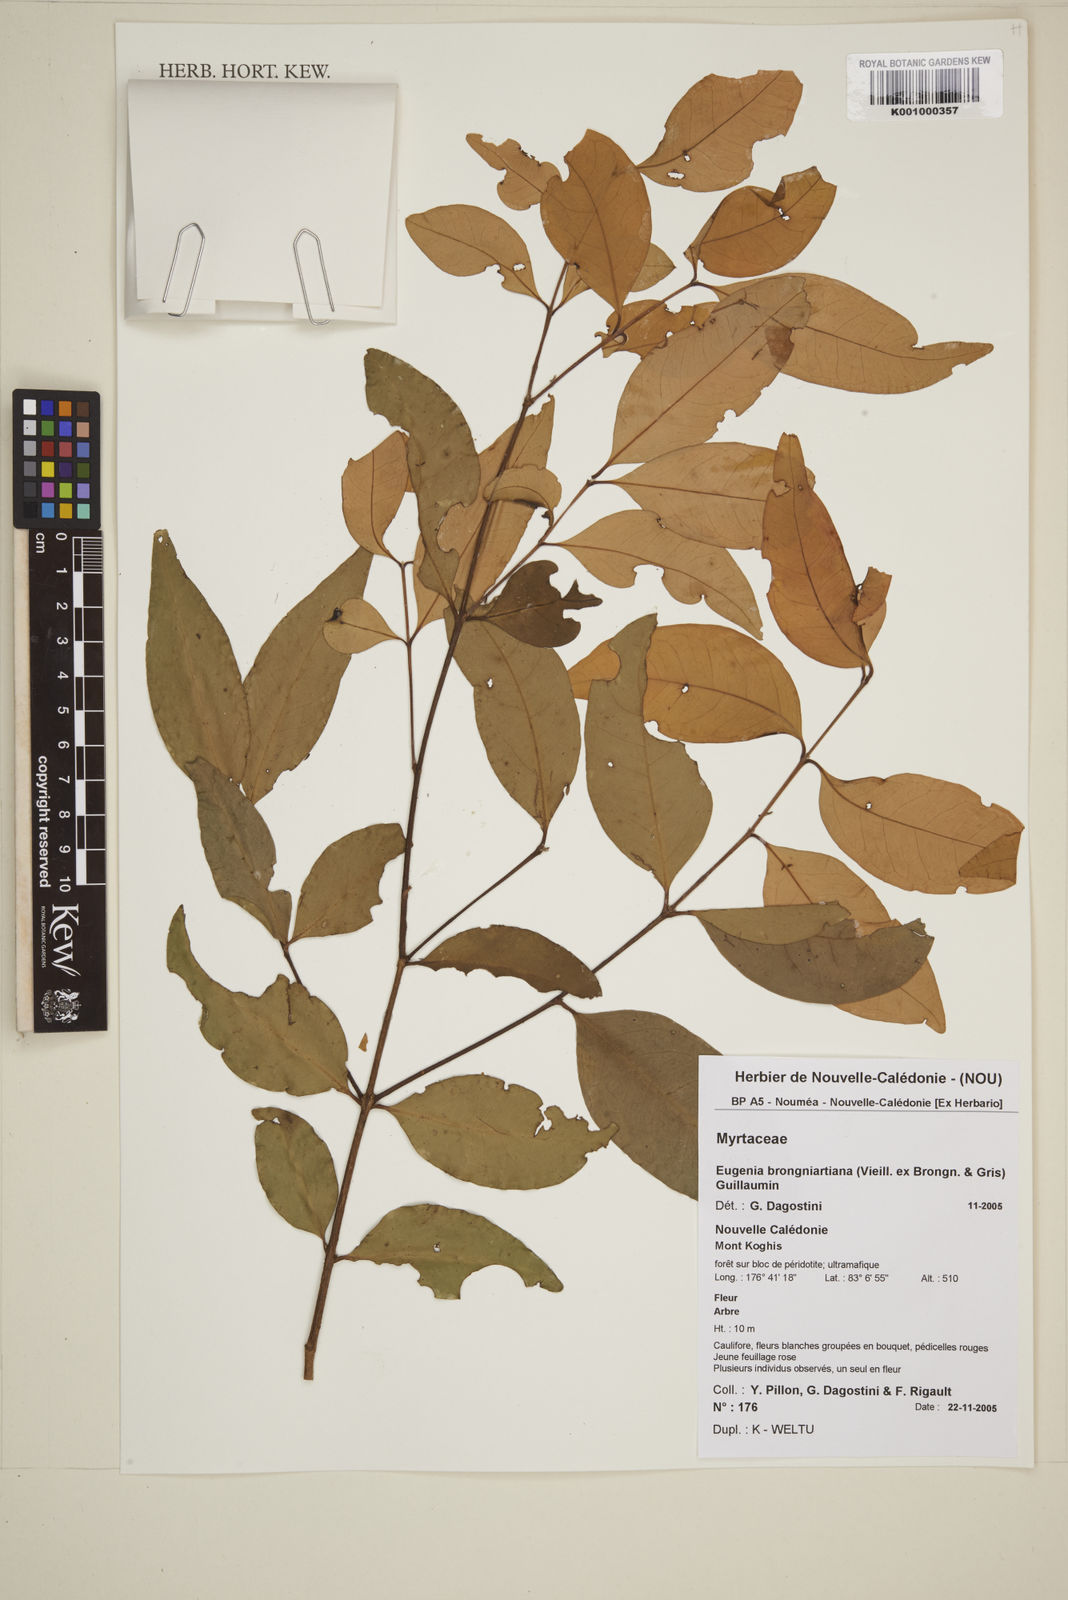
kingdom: Plantae
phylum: Tracheophyta
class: Magnoliopsida
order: Myrtales
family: Myrtaceae
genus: Eugenia
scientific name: Eugenia brongniartiana
